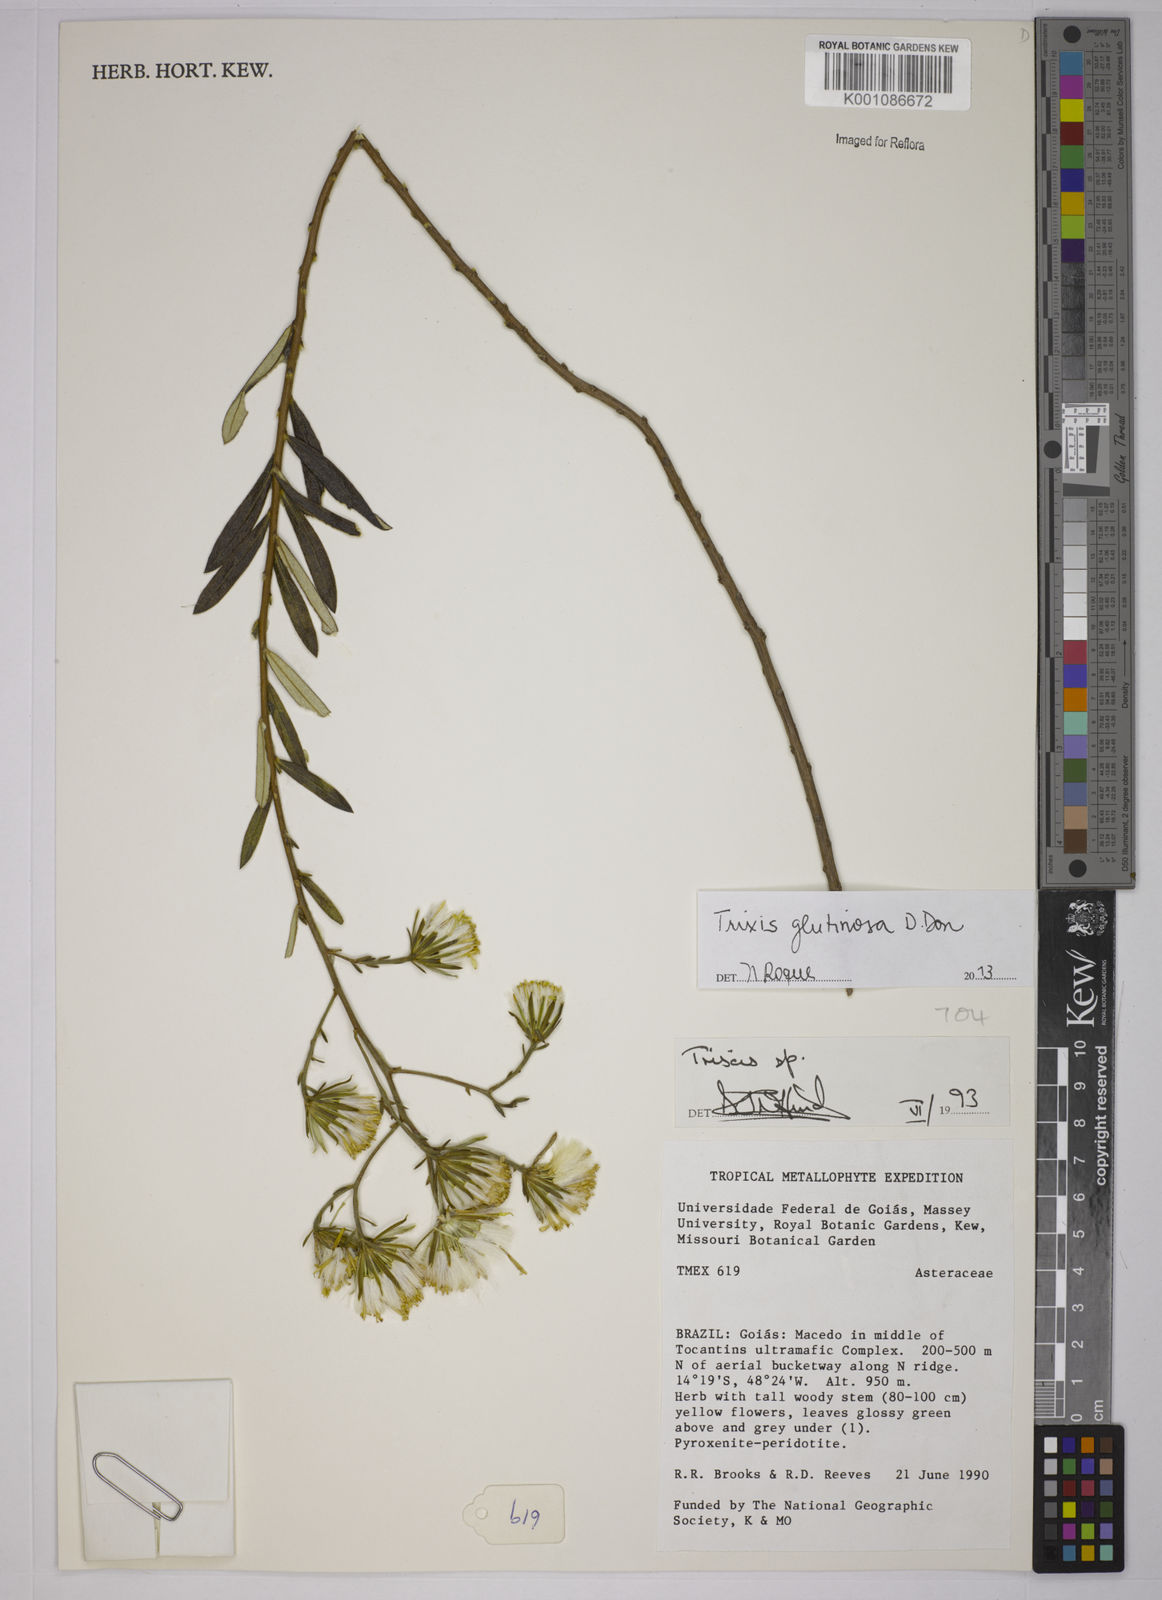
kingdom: Plantae
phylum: Tracheophyta
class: Magnoliopsida
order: Asterales
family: Asteraceae
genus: Trixis
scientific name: Trixis glutinosa
